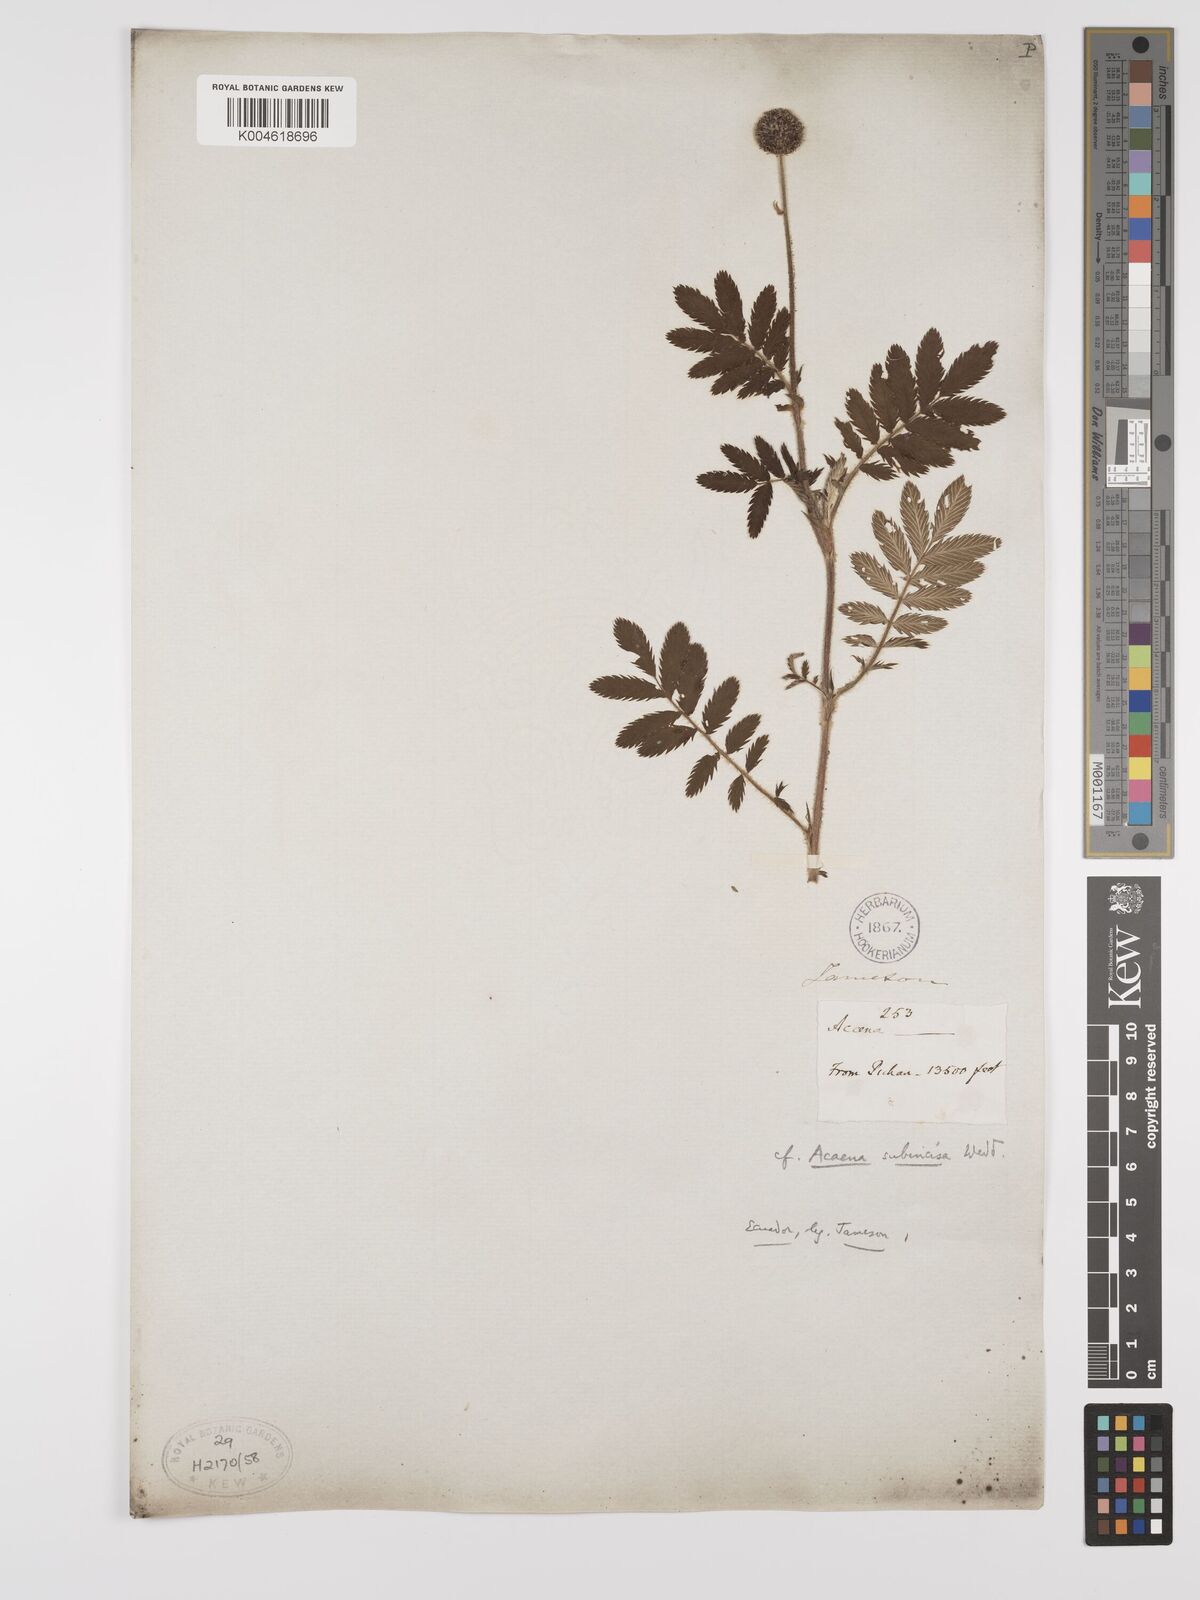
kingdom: Plantae
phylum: Tracheophyta
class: Magnoliopsida
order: Rosales
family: Rosaceae
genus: Acaena
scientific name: Acaena subincisa
